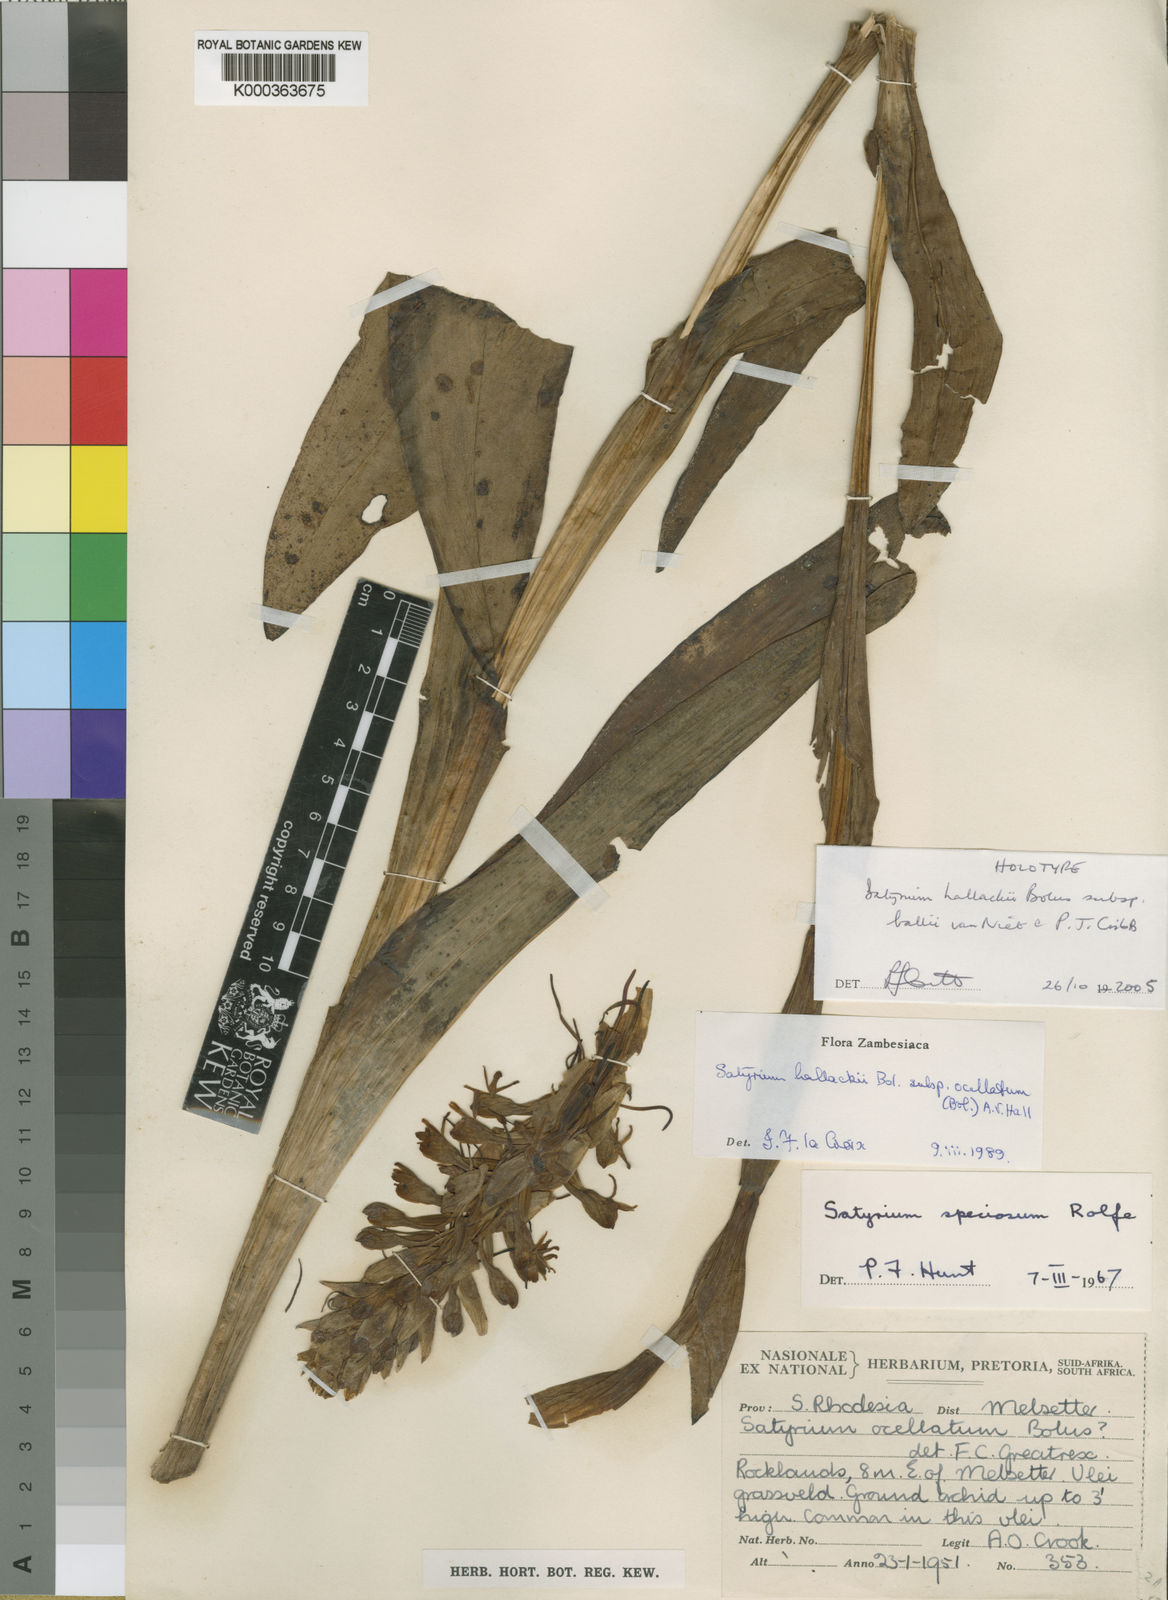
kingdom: Plantae
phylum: Tracheophyta
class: Liliopsida
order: Asparagales
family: Orchidaceae
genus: Satyrium
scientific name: Satyrium hallackii
